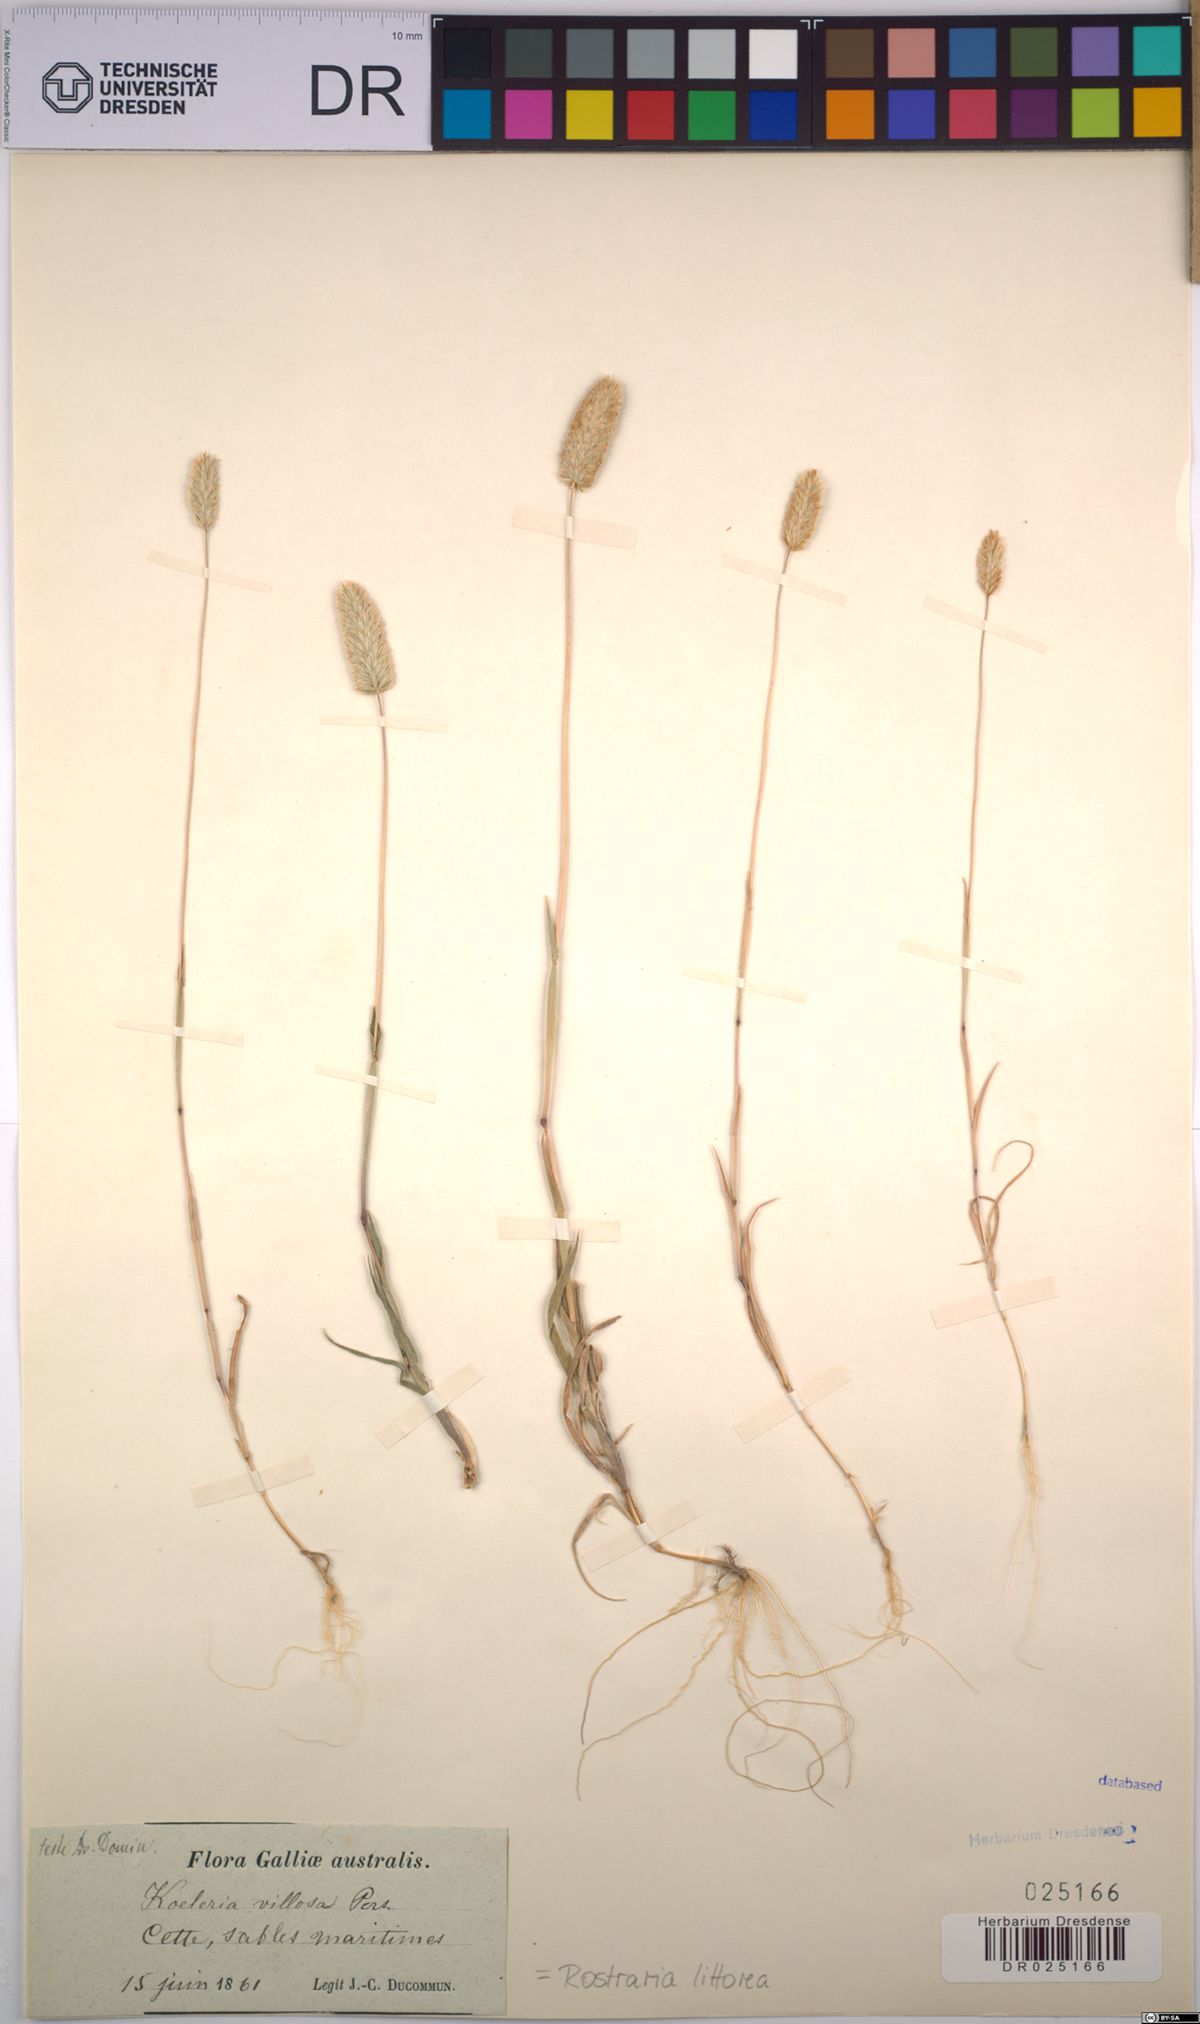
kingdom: Plantae
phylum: Tracheophyta
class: Liliopsida
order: Poales
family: Poaceae
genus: Rostraria
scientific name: Rostraria litorea
